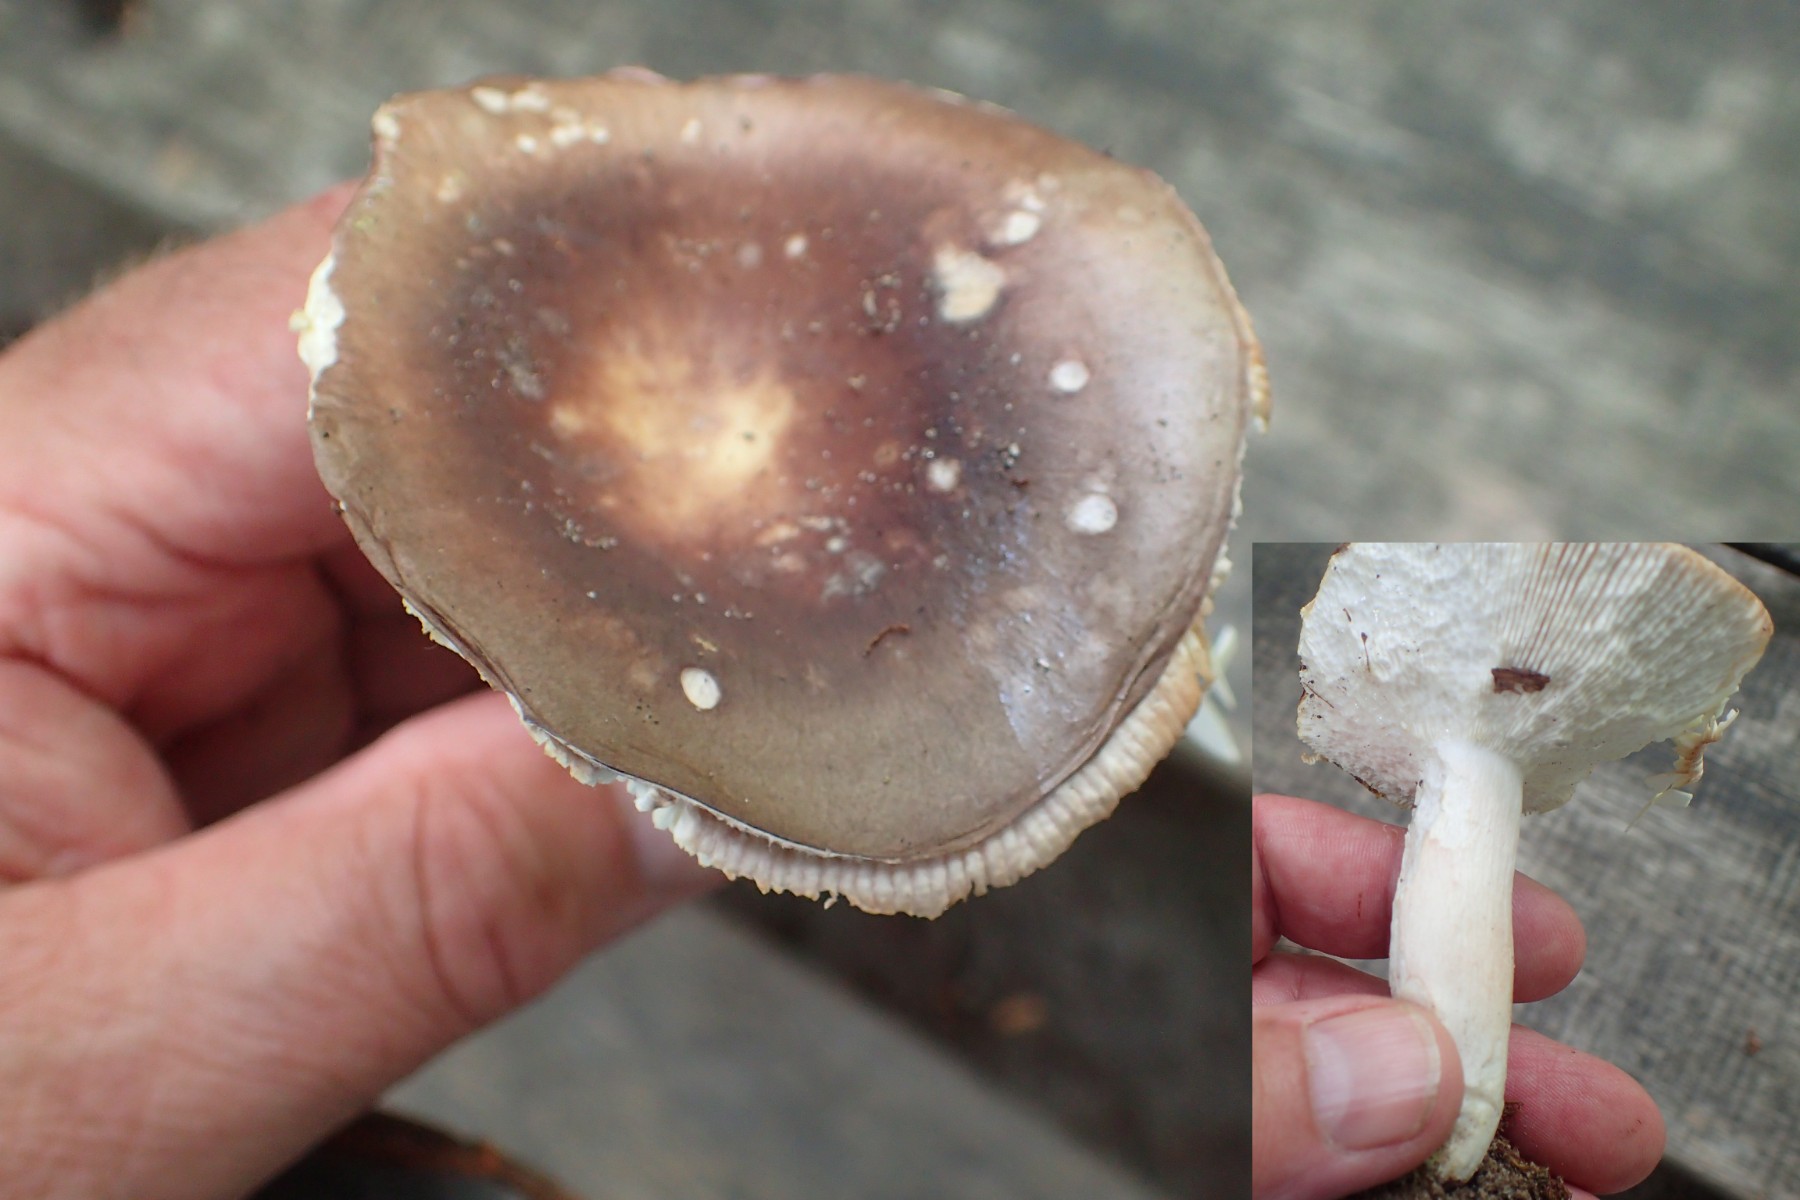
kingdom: Fungi
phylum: Basidiomycota
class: Agaricomycetes
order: Russulales
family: Russulaceae
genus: Russula
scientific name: Russula vesca
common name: spiselig skørhat
